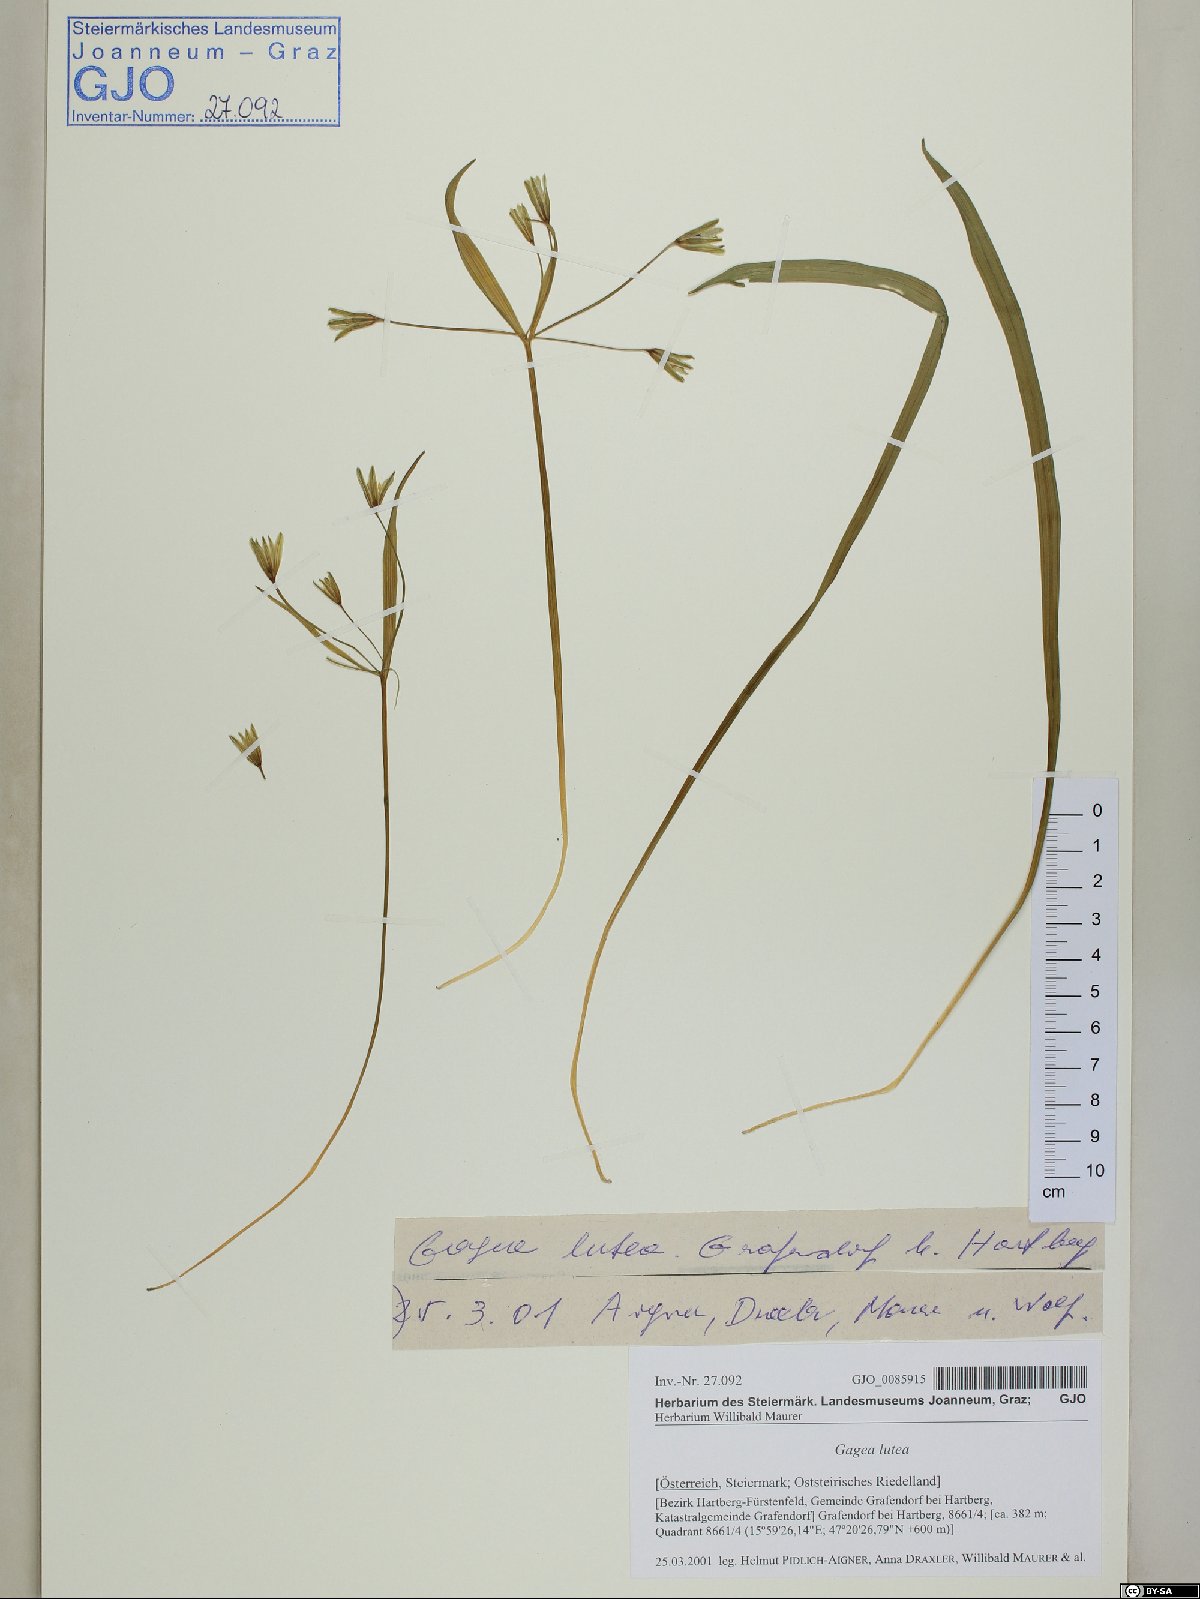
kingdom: Plantae
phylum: Tracheophyta
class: Liliopsida
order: Liliales
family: Liliaceae
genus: Gagea
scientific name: Gagea lutea
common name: Yellow star-of-bethlehem
